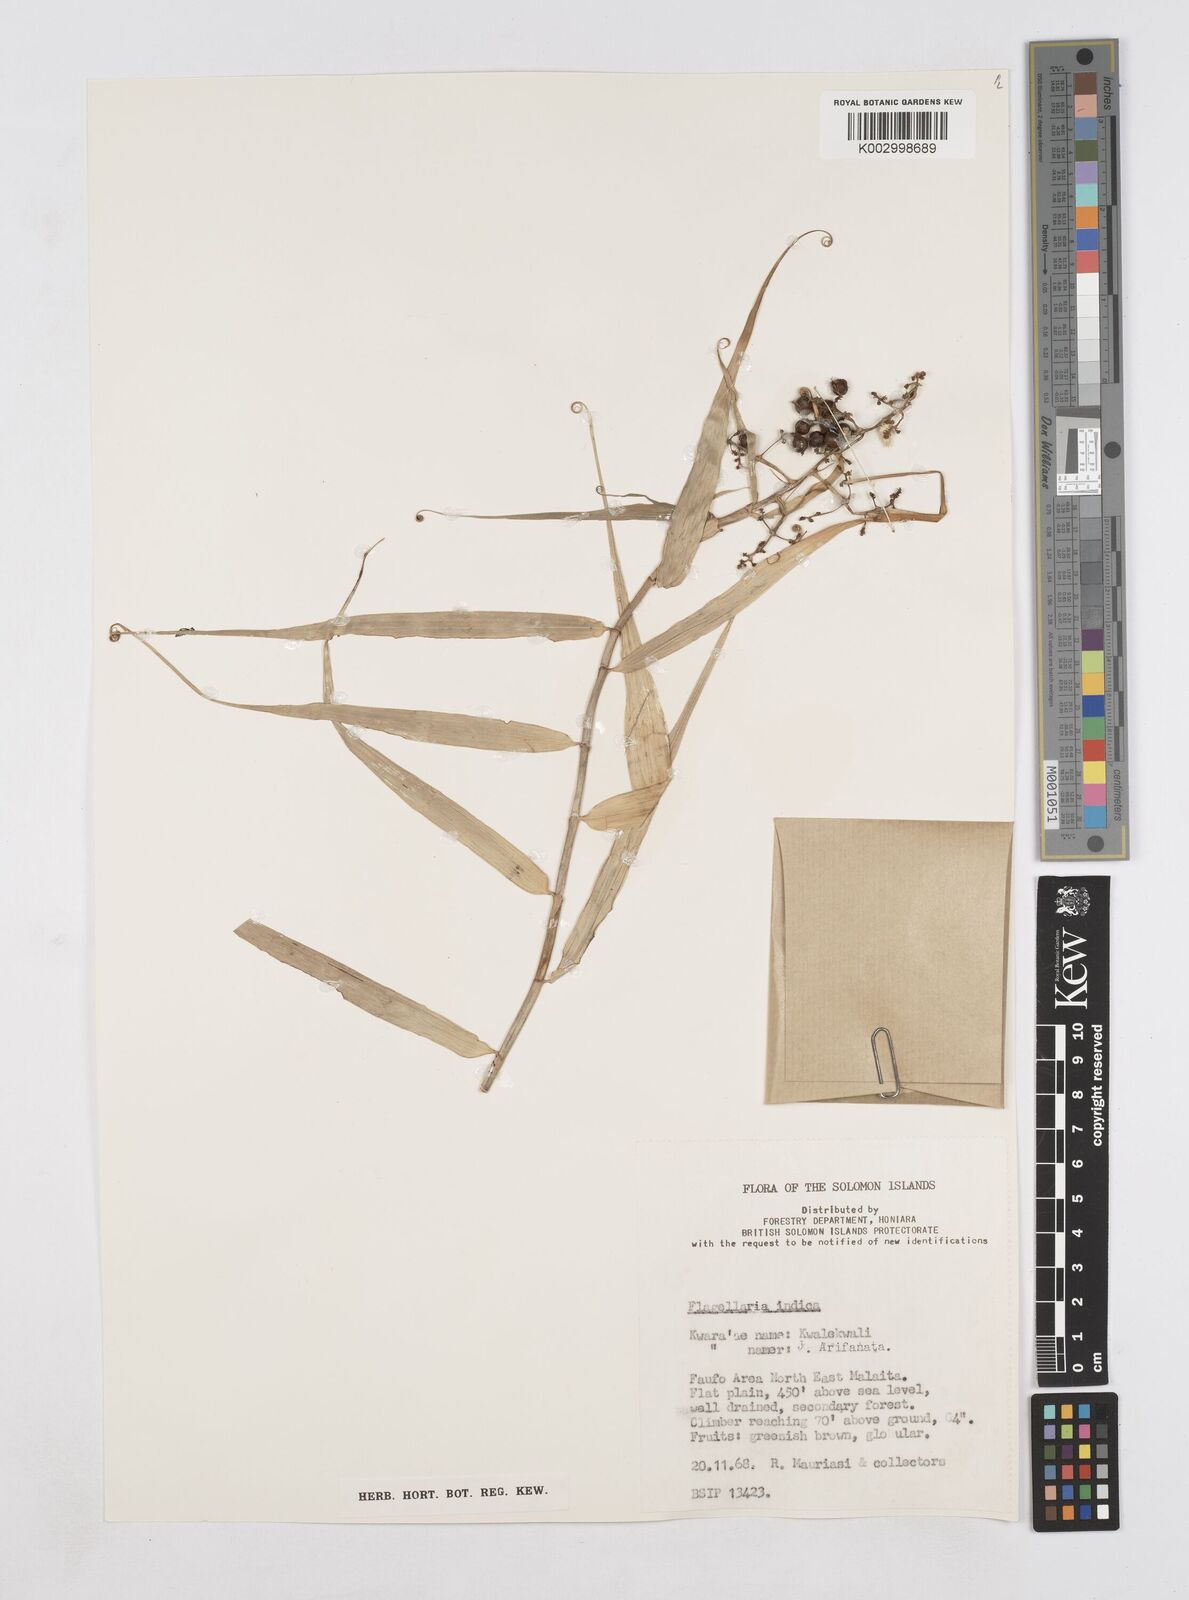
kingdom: Plantae
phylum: Tracheophyta
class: Liliopsida
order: Poales
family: Flagellariaceae
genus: Flagellaria
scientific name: Flagellaria indica
